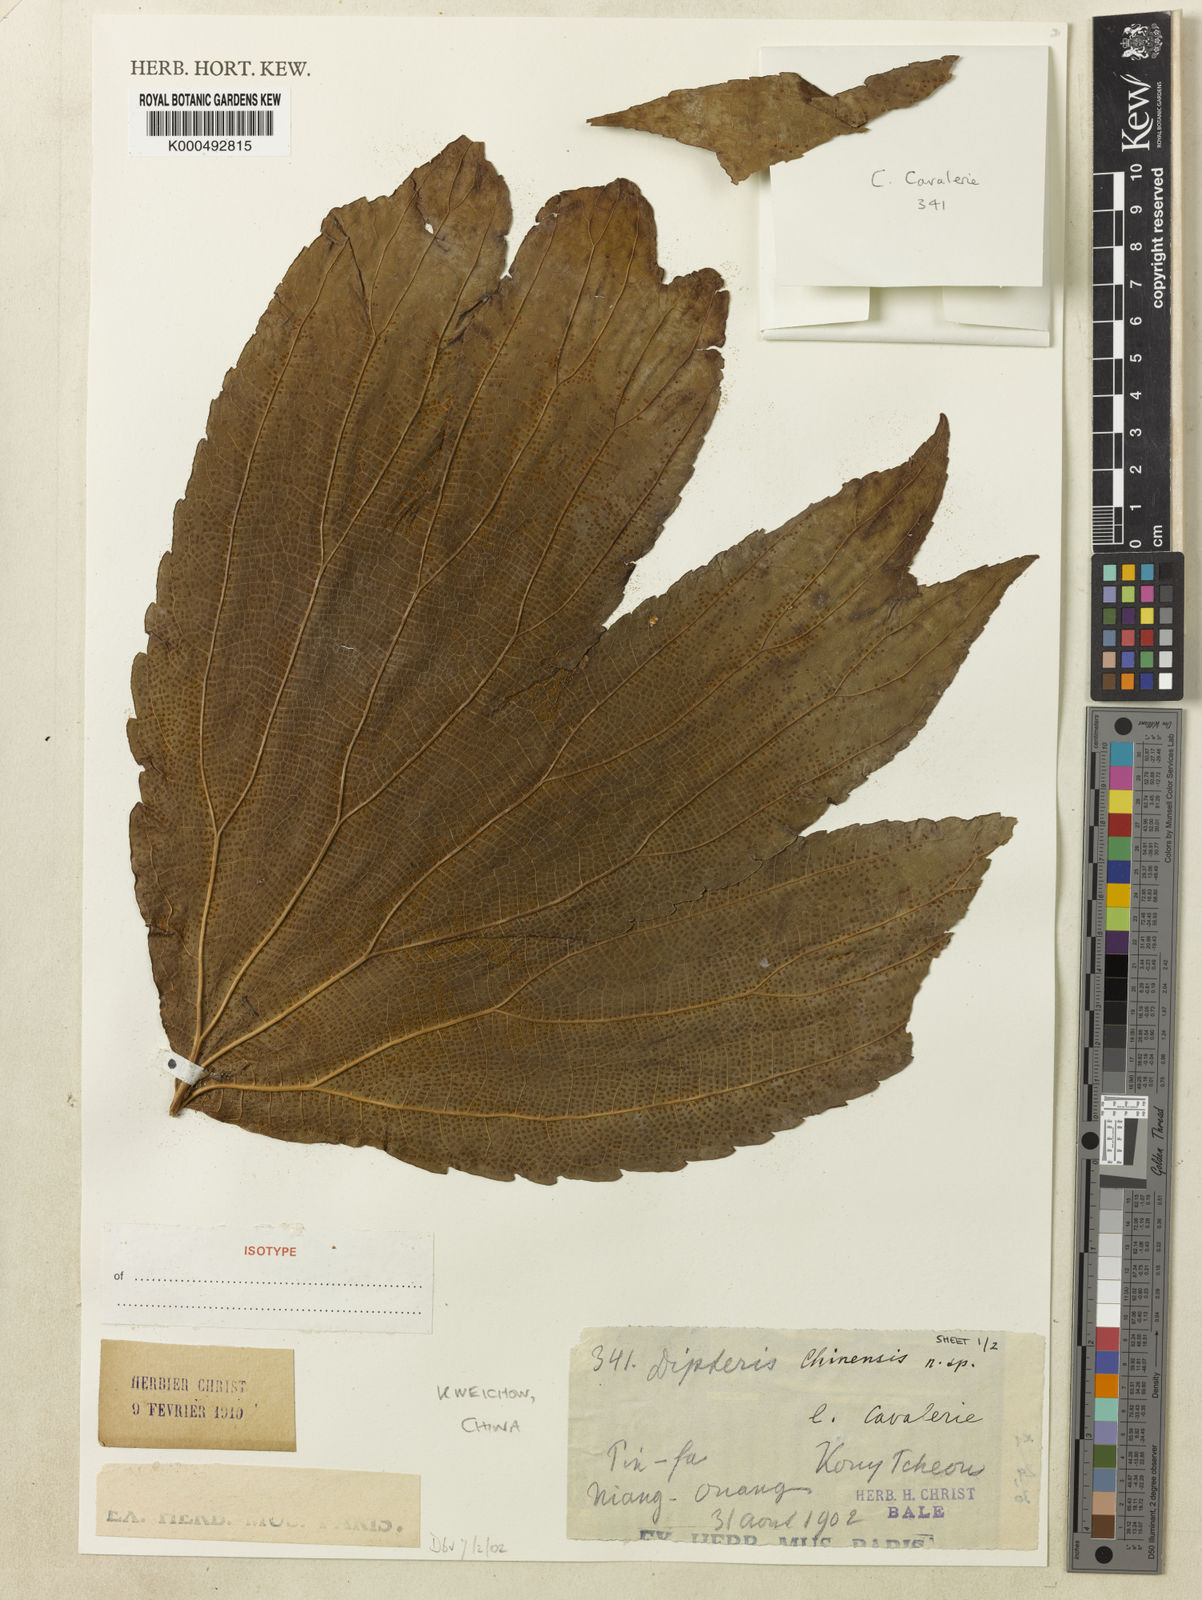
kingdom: Plantae
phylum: Tracheophyta
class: Polypodiopsida
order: Gleicheniales
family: Dipteridaceae
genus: Dipteris
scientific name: Dipteris chinensis
